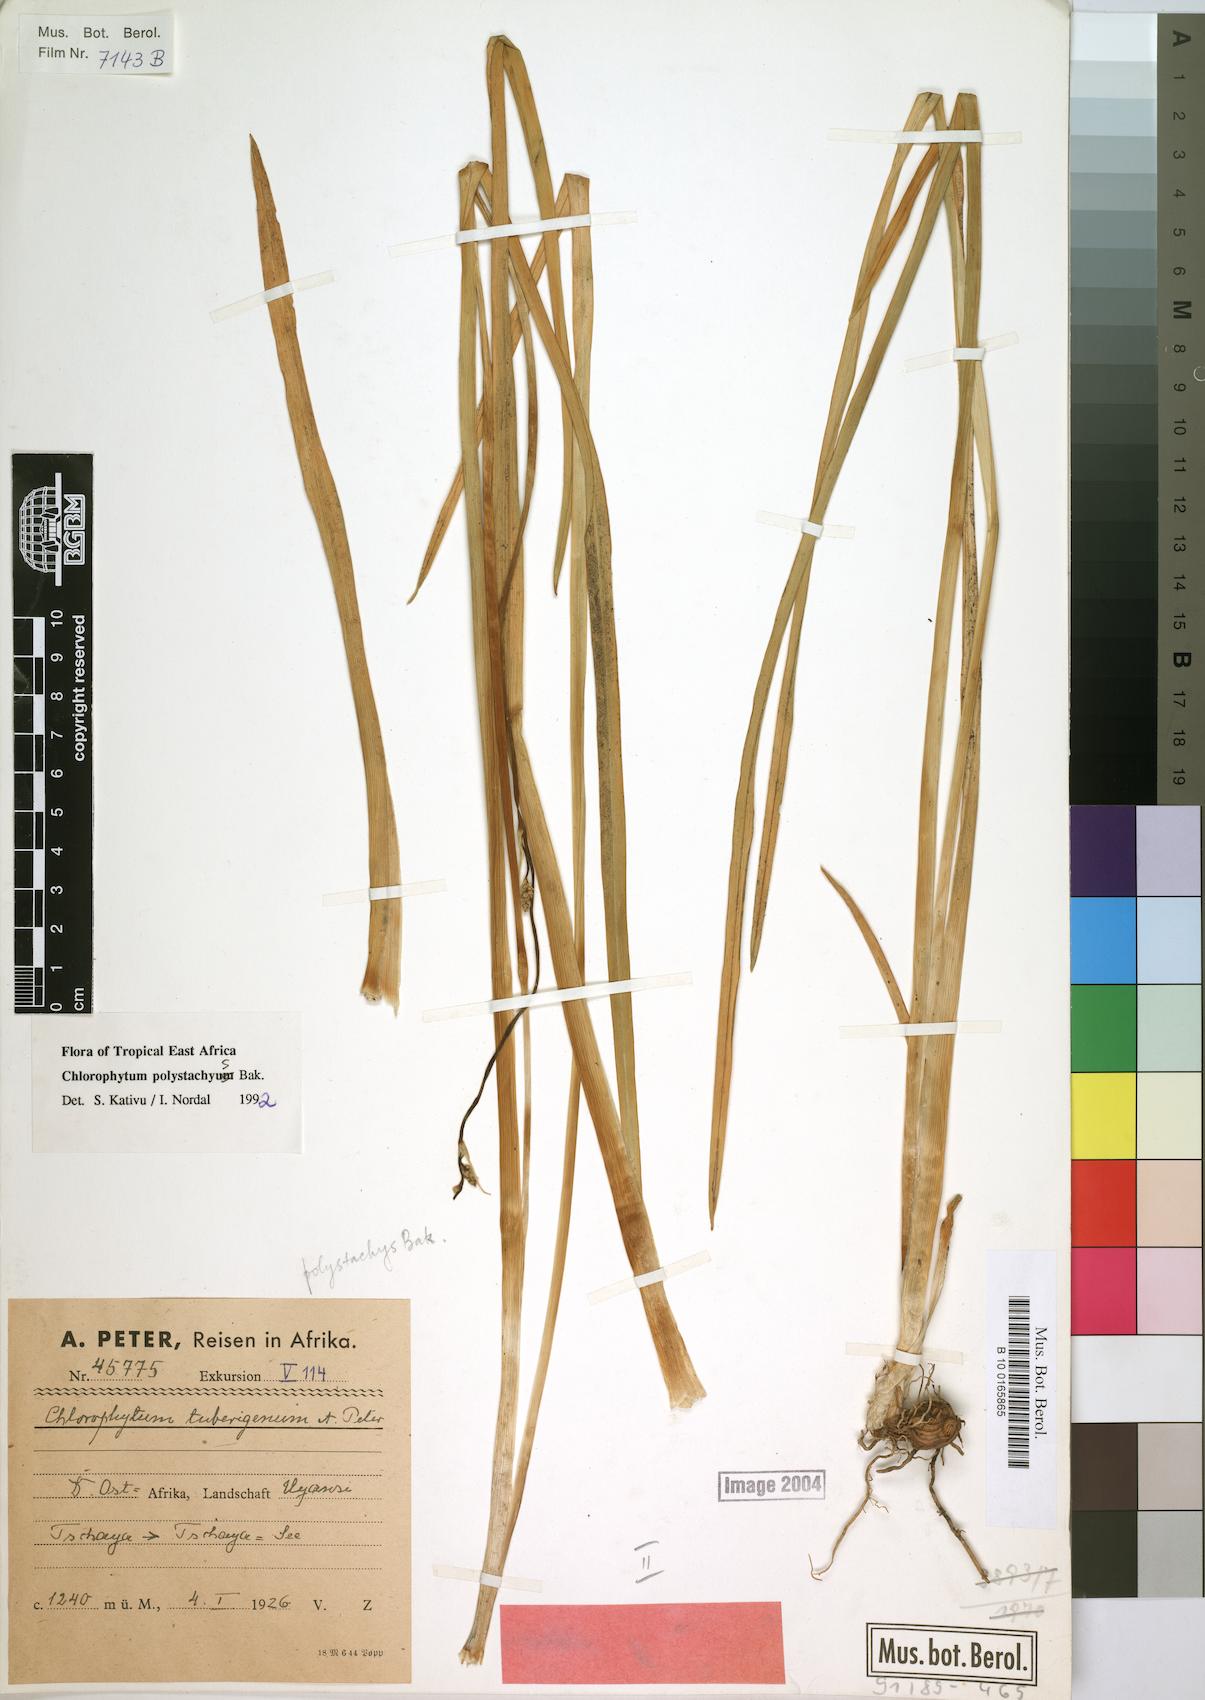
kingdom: Plantae
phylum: Tracheophyta
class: Liliopsida
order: Asparagales
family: Asparagaceae
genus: Chlorophytum
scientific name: Chlorophytum polystachys
